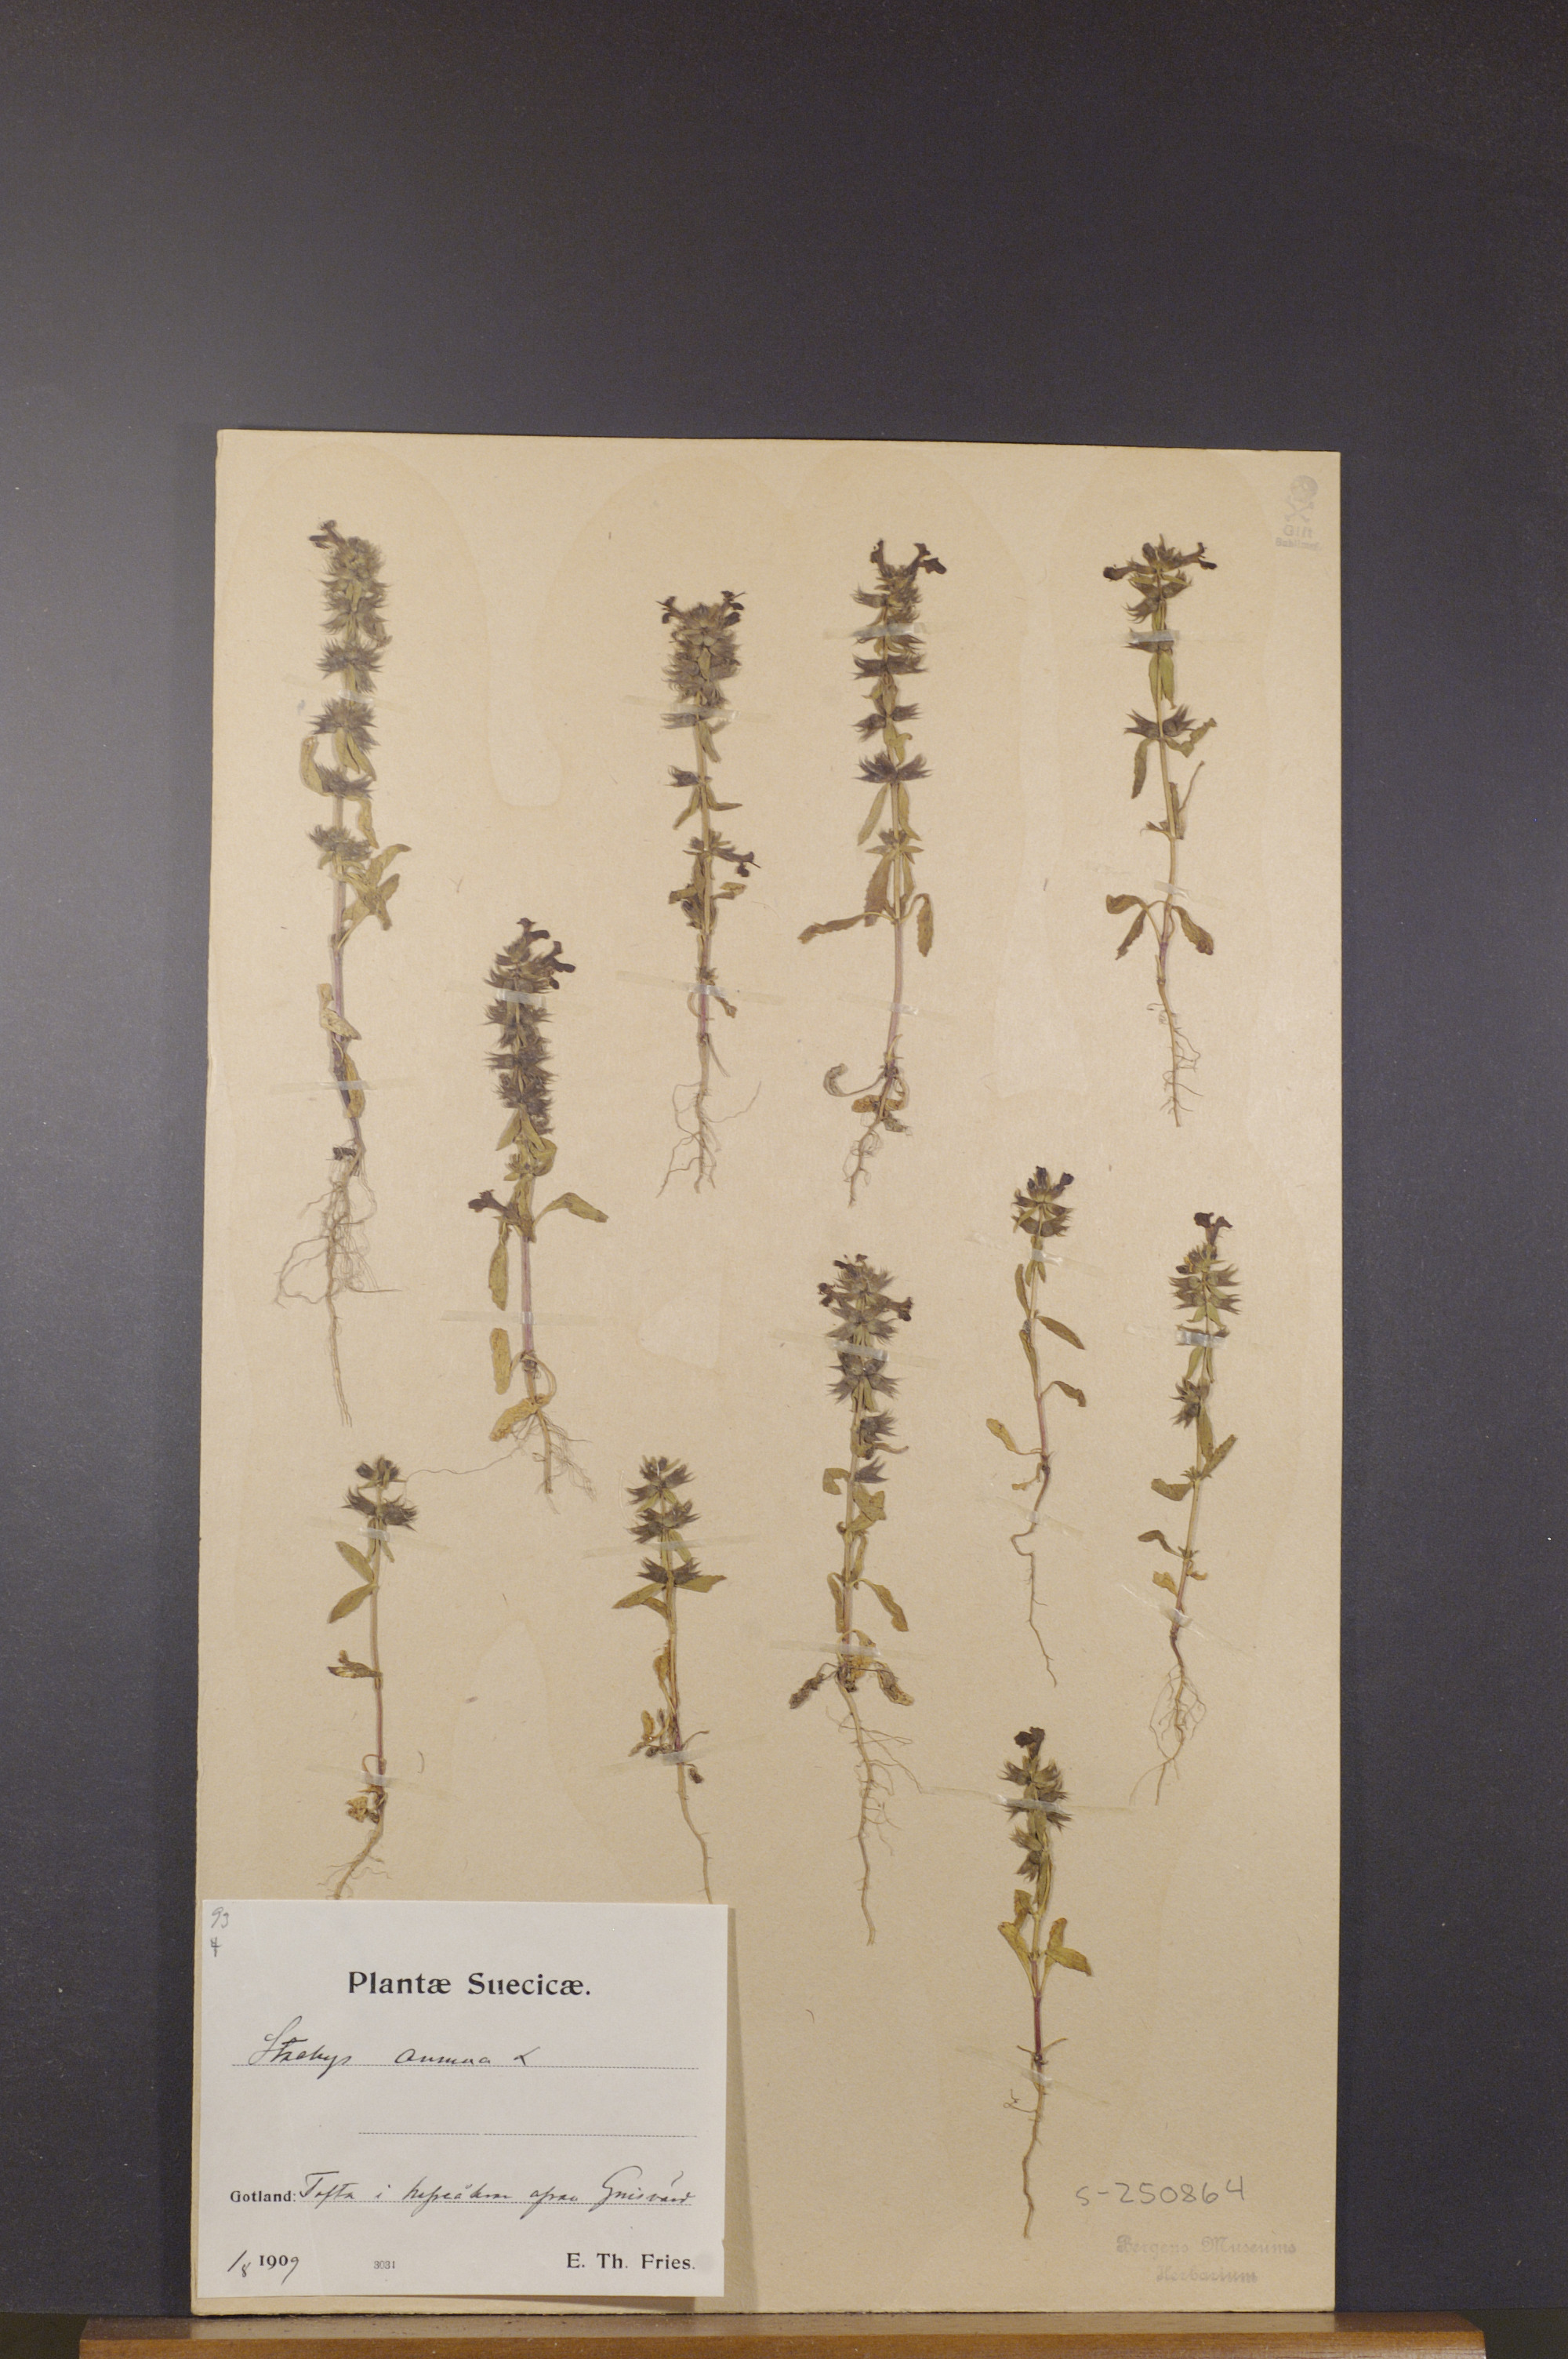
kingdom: Plantae
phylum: Tracheophyta
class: Magnoliopsida
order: Lamiales
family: Lamiaceae
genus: Stachys
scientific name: Stachys annua
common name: Annual yellow-woundwort
